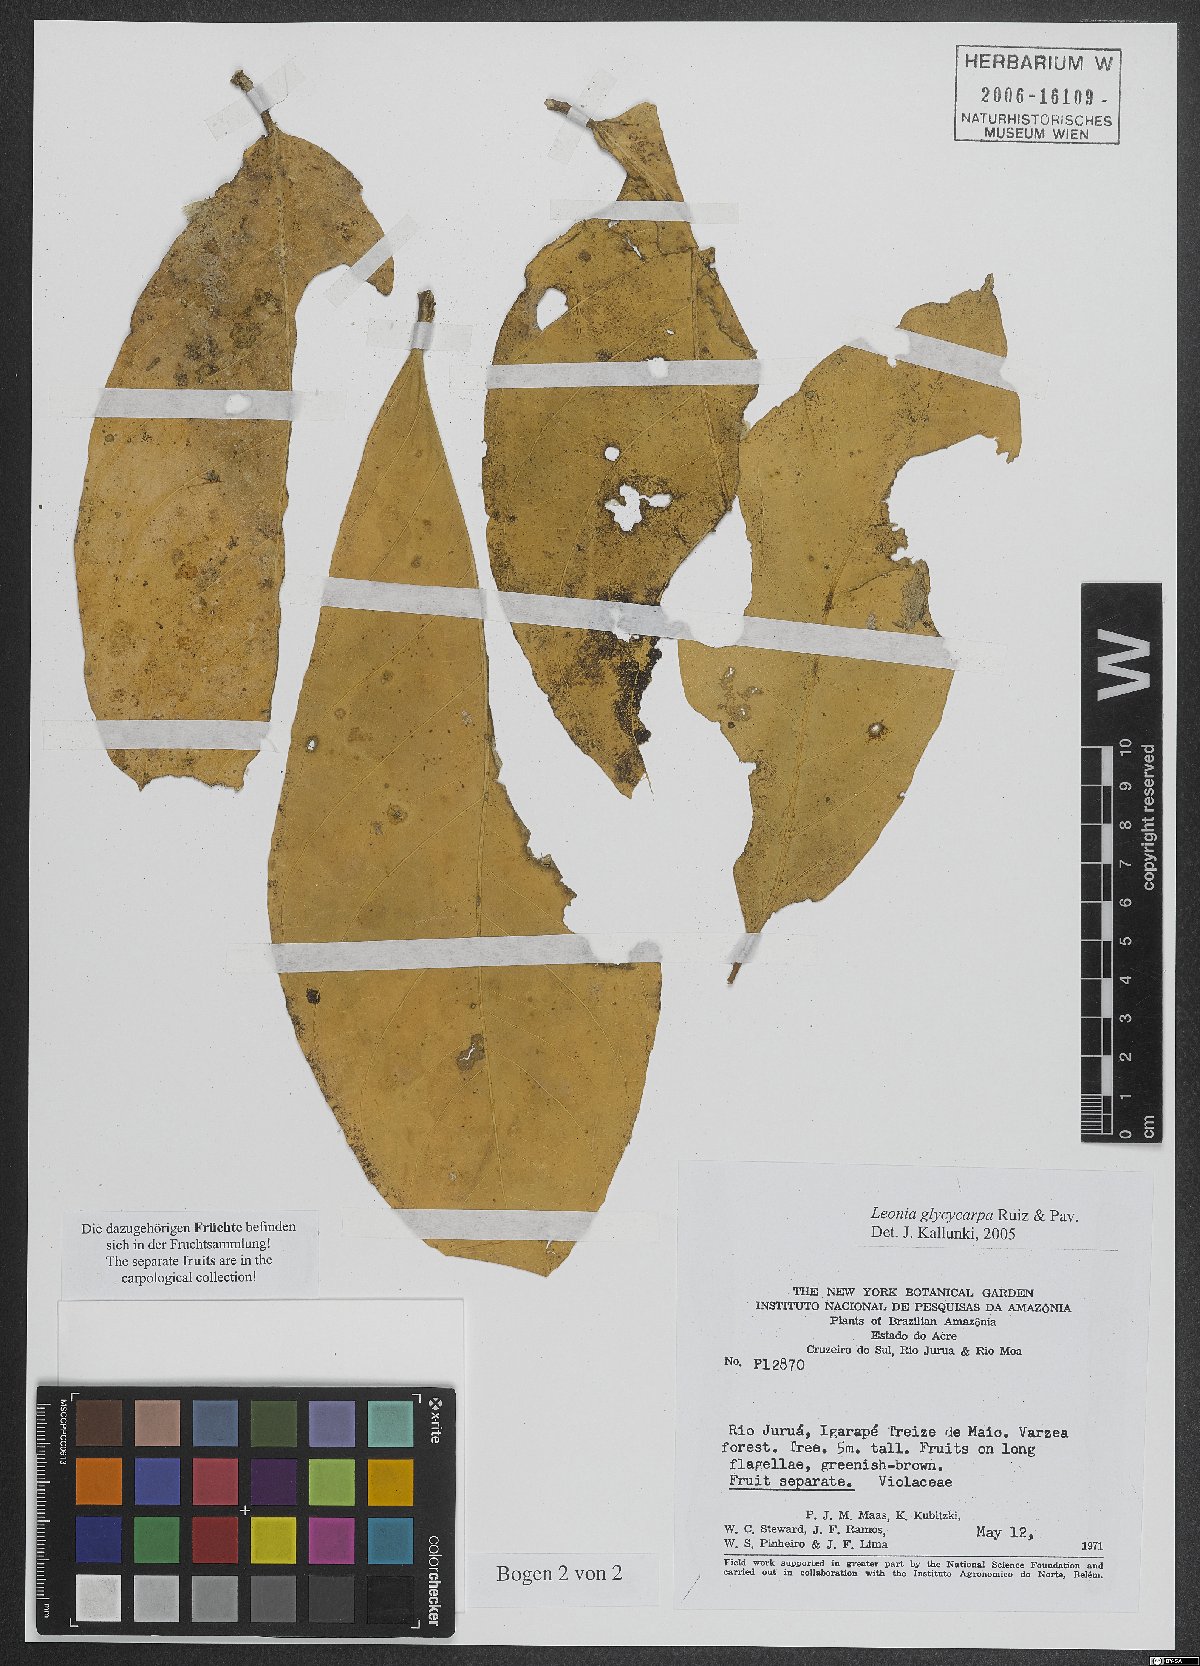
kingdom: Plantae
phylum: Tracheophyta
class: Magnoliopsida
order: Malpighiales
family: Violaceae
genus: Leonia
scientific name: Leonia glycycarpa
